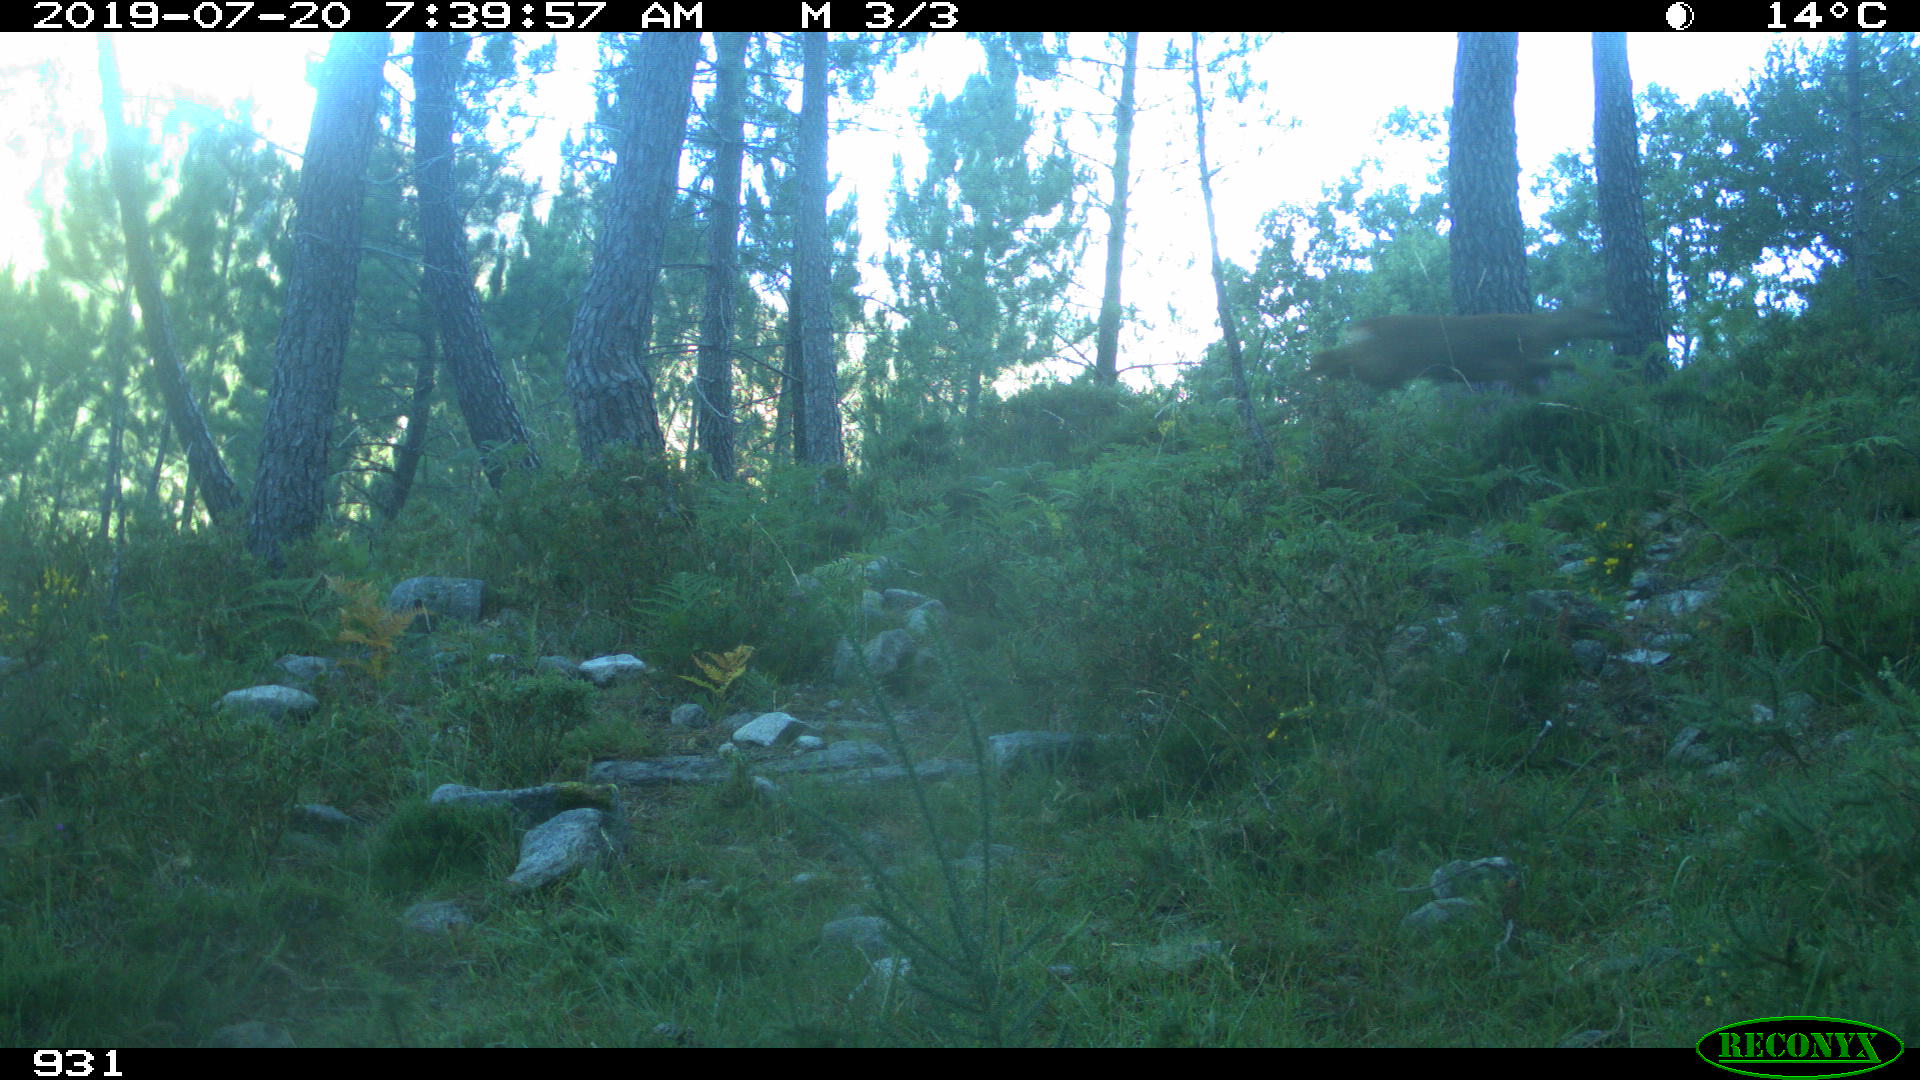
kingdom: Animalia
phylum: Chordata
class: Mammalia
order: Artiodactyla
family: Cervidae
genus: Capreolus
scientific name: Capreolus capreolus
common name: Western roe deer
